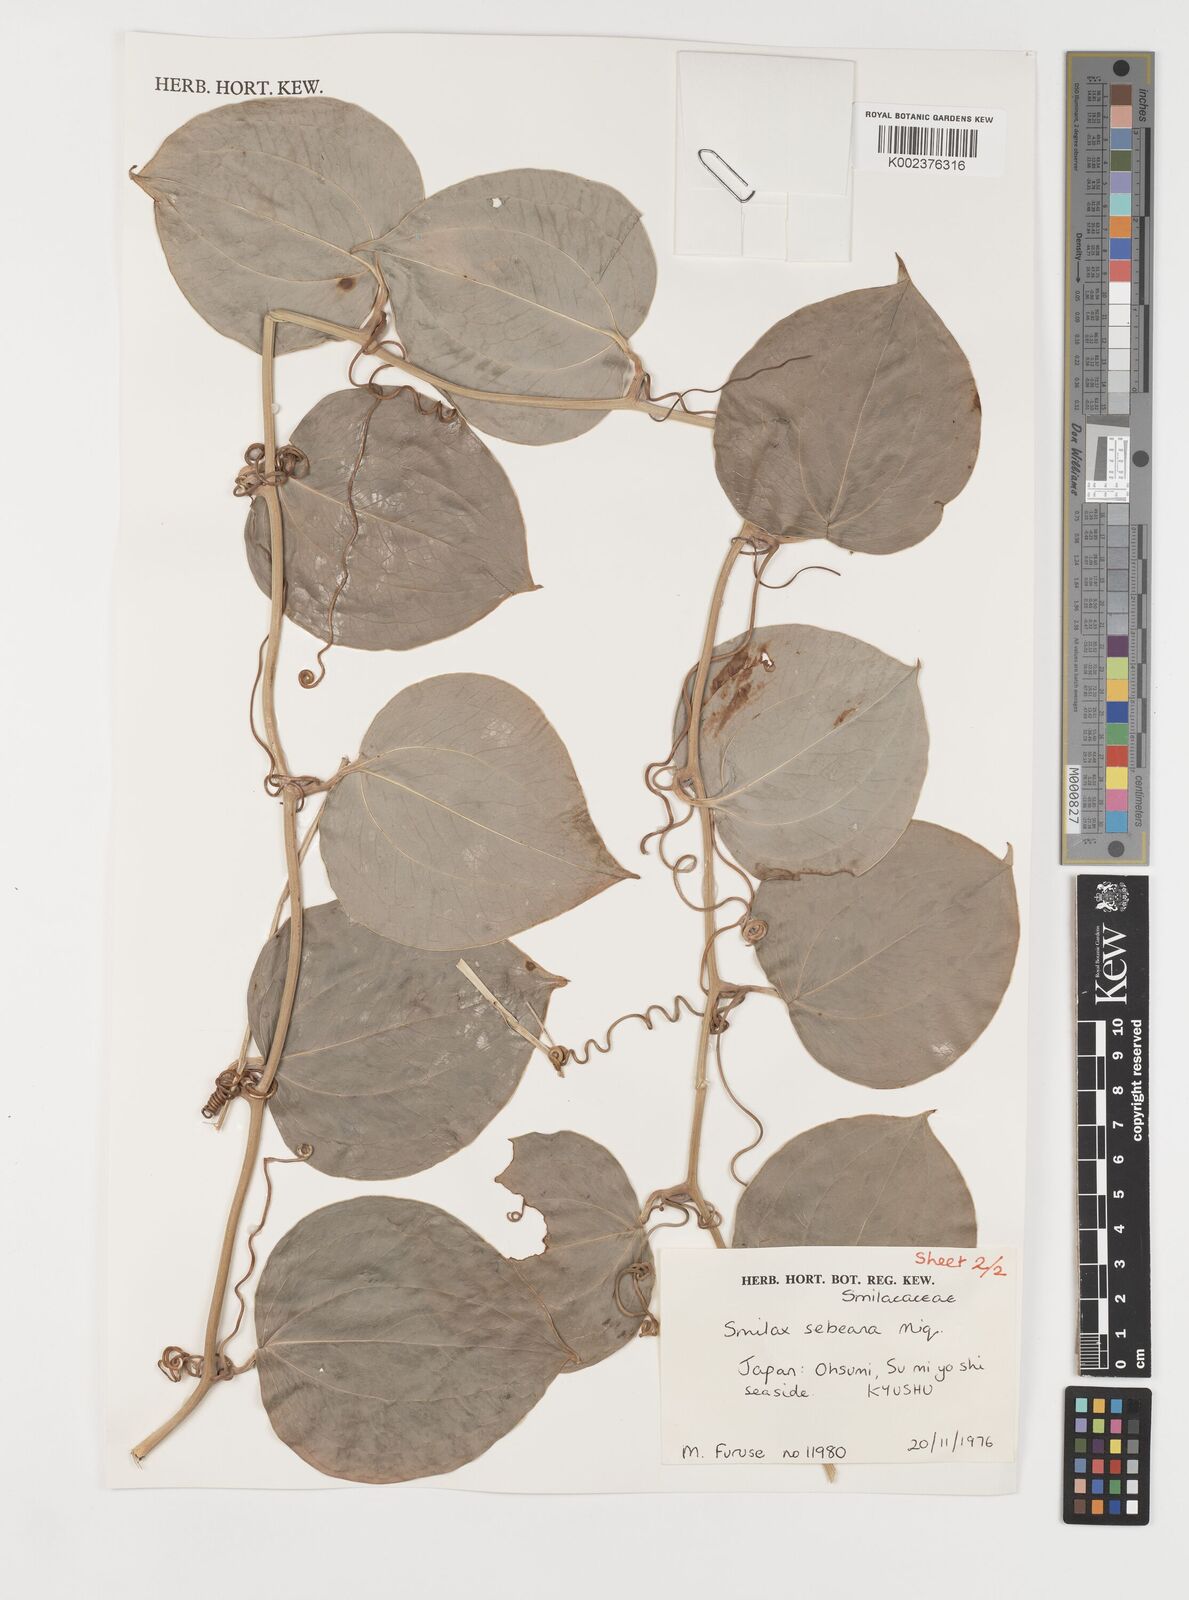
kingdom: Plantae
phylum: Tracheophyta
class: Liliopsida
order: Liliales
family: Smilacaceae
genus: Smilax
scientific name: Smilax sebeana
